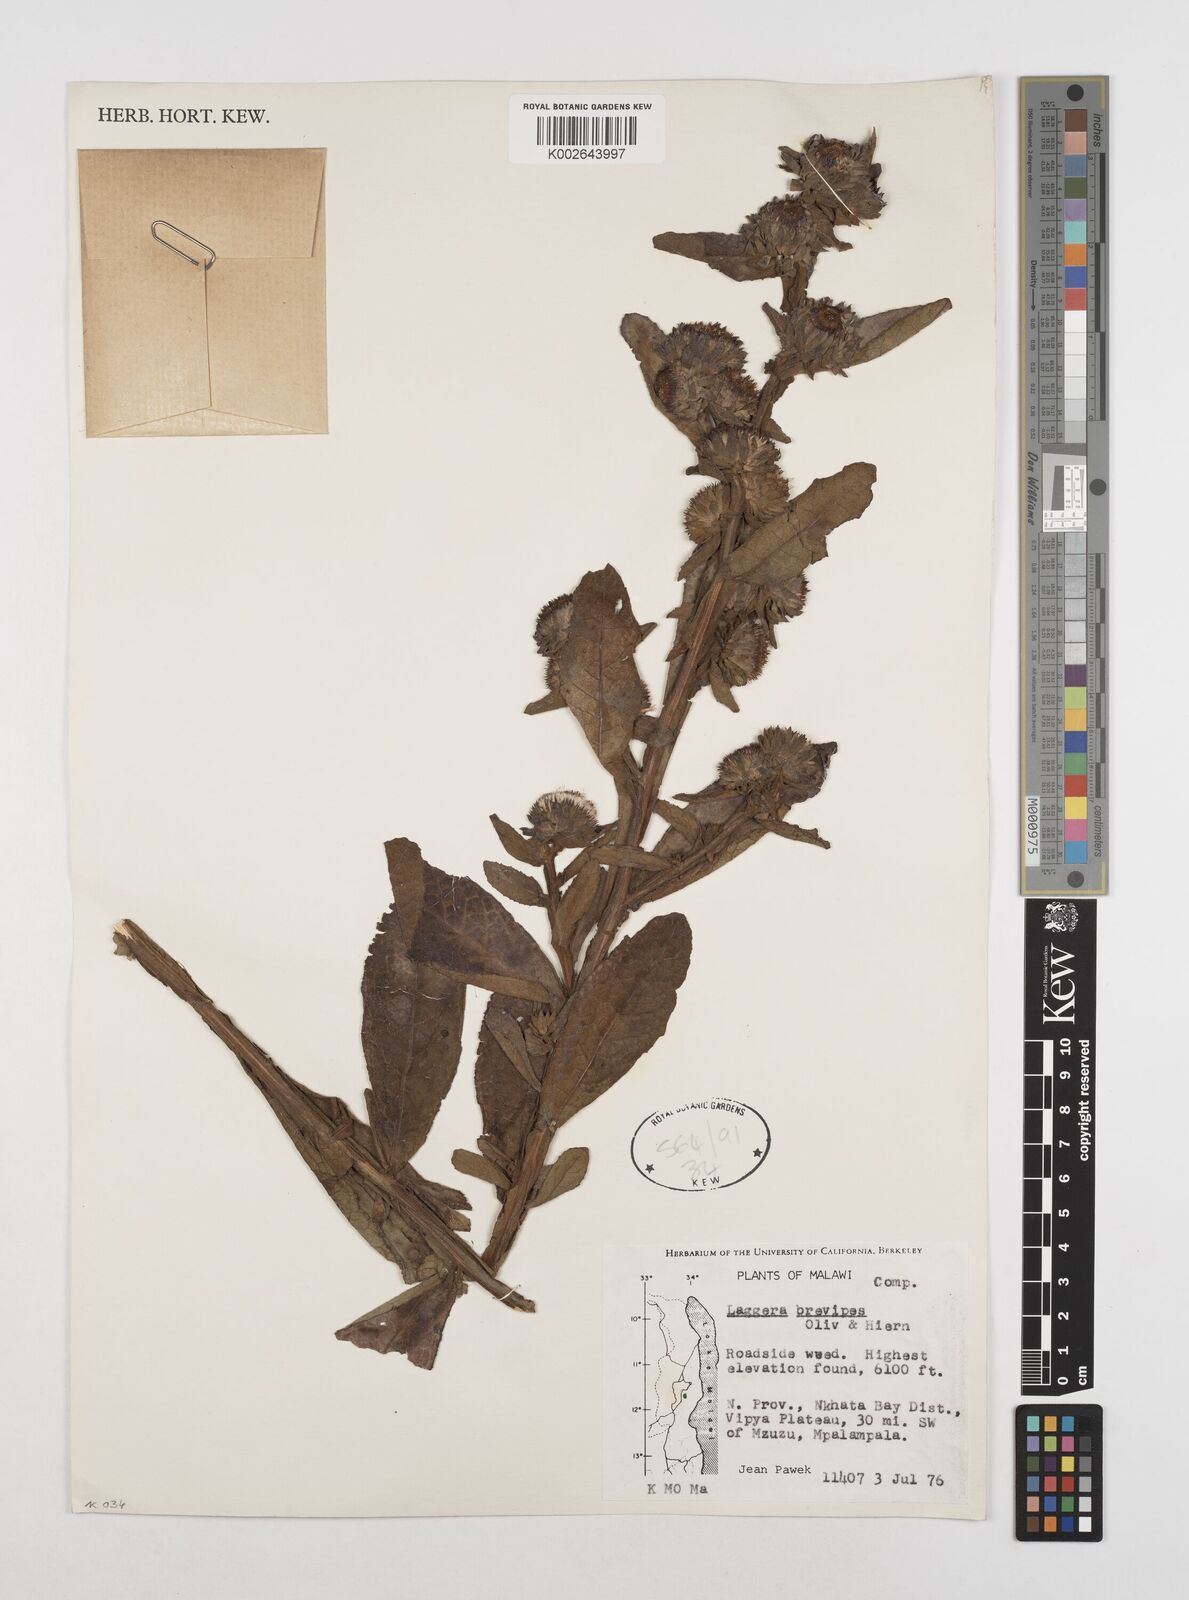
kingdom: Plantae
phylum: Tracheophyta
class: Magnoliopsida
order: Asterales
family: Asteraceae
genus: Laggera
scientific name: Laggera brevipes
